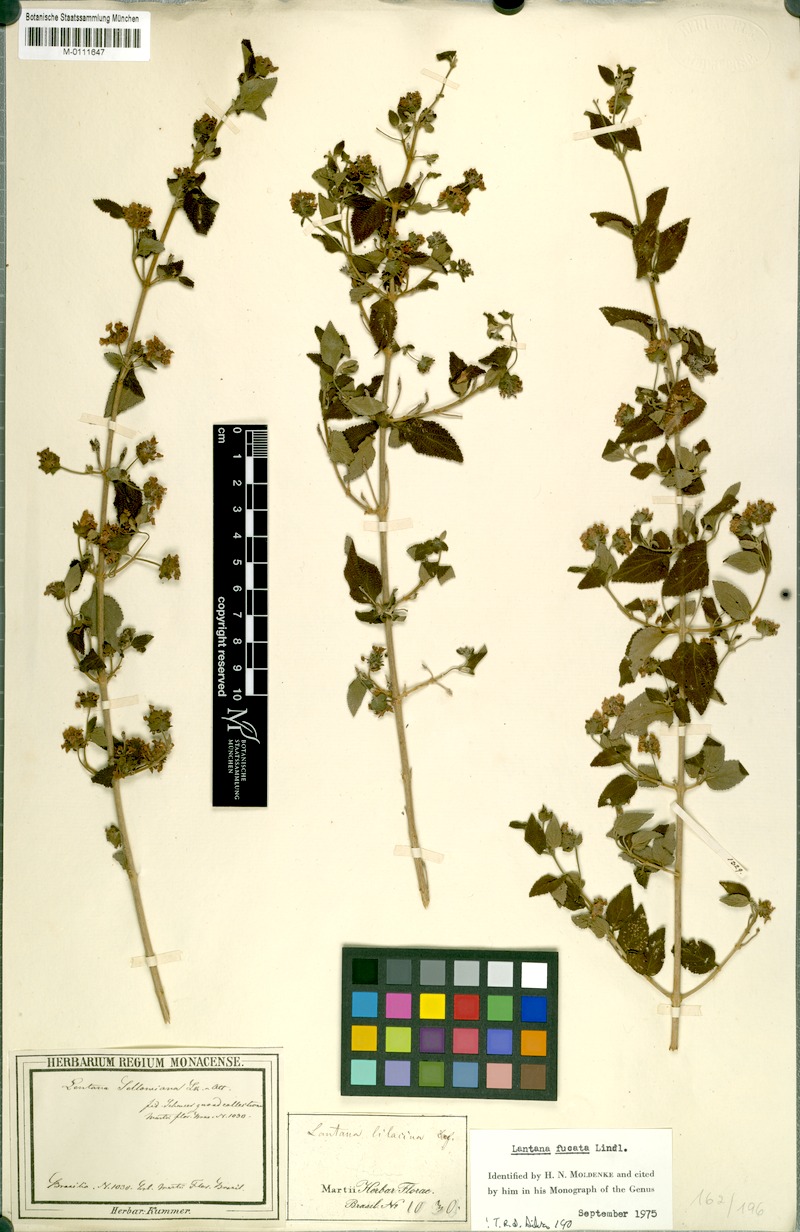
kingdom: Plantae
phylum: Tracheophyta
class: Magnoliopsida
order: Lamiales
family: Verbenaceae
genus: Lantana
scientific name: Lantana fucata
